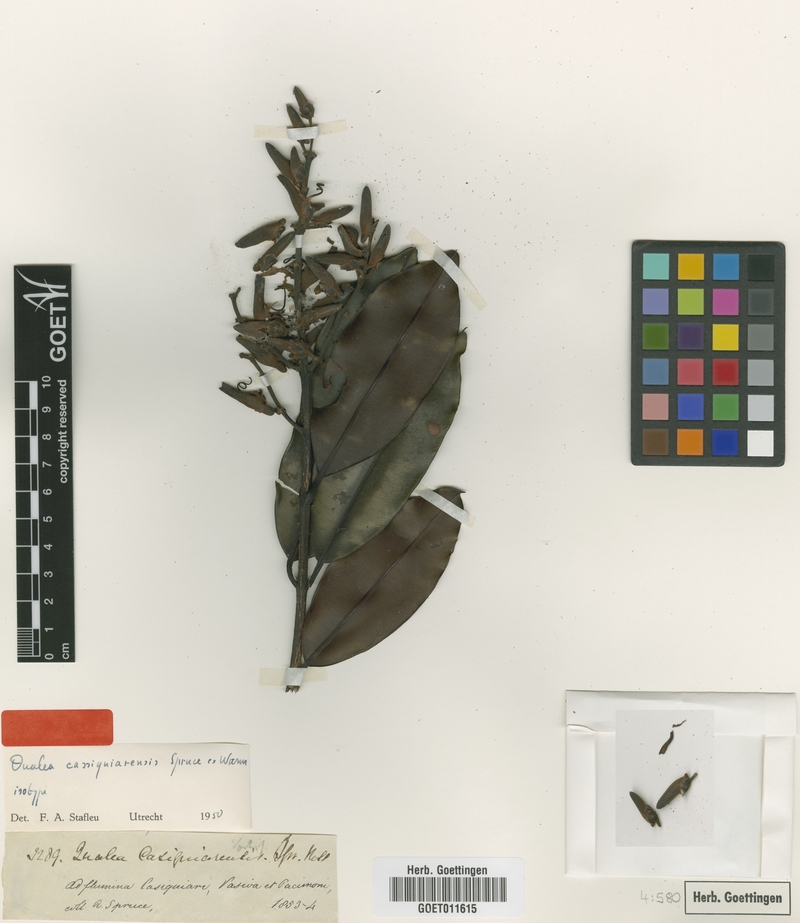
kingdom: Plantae
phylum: Tracheophyta
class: Magnoliopsida
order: Myrtales
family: Vochysiaceae
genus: Ruizterania
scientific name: Ruizterania cassiquiarensis
